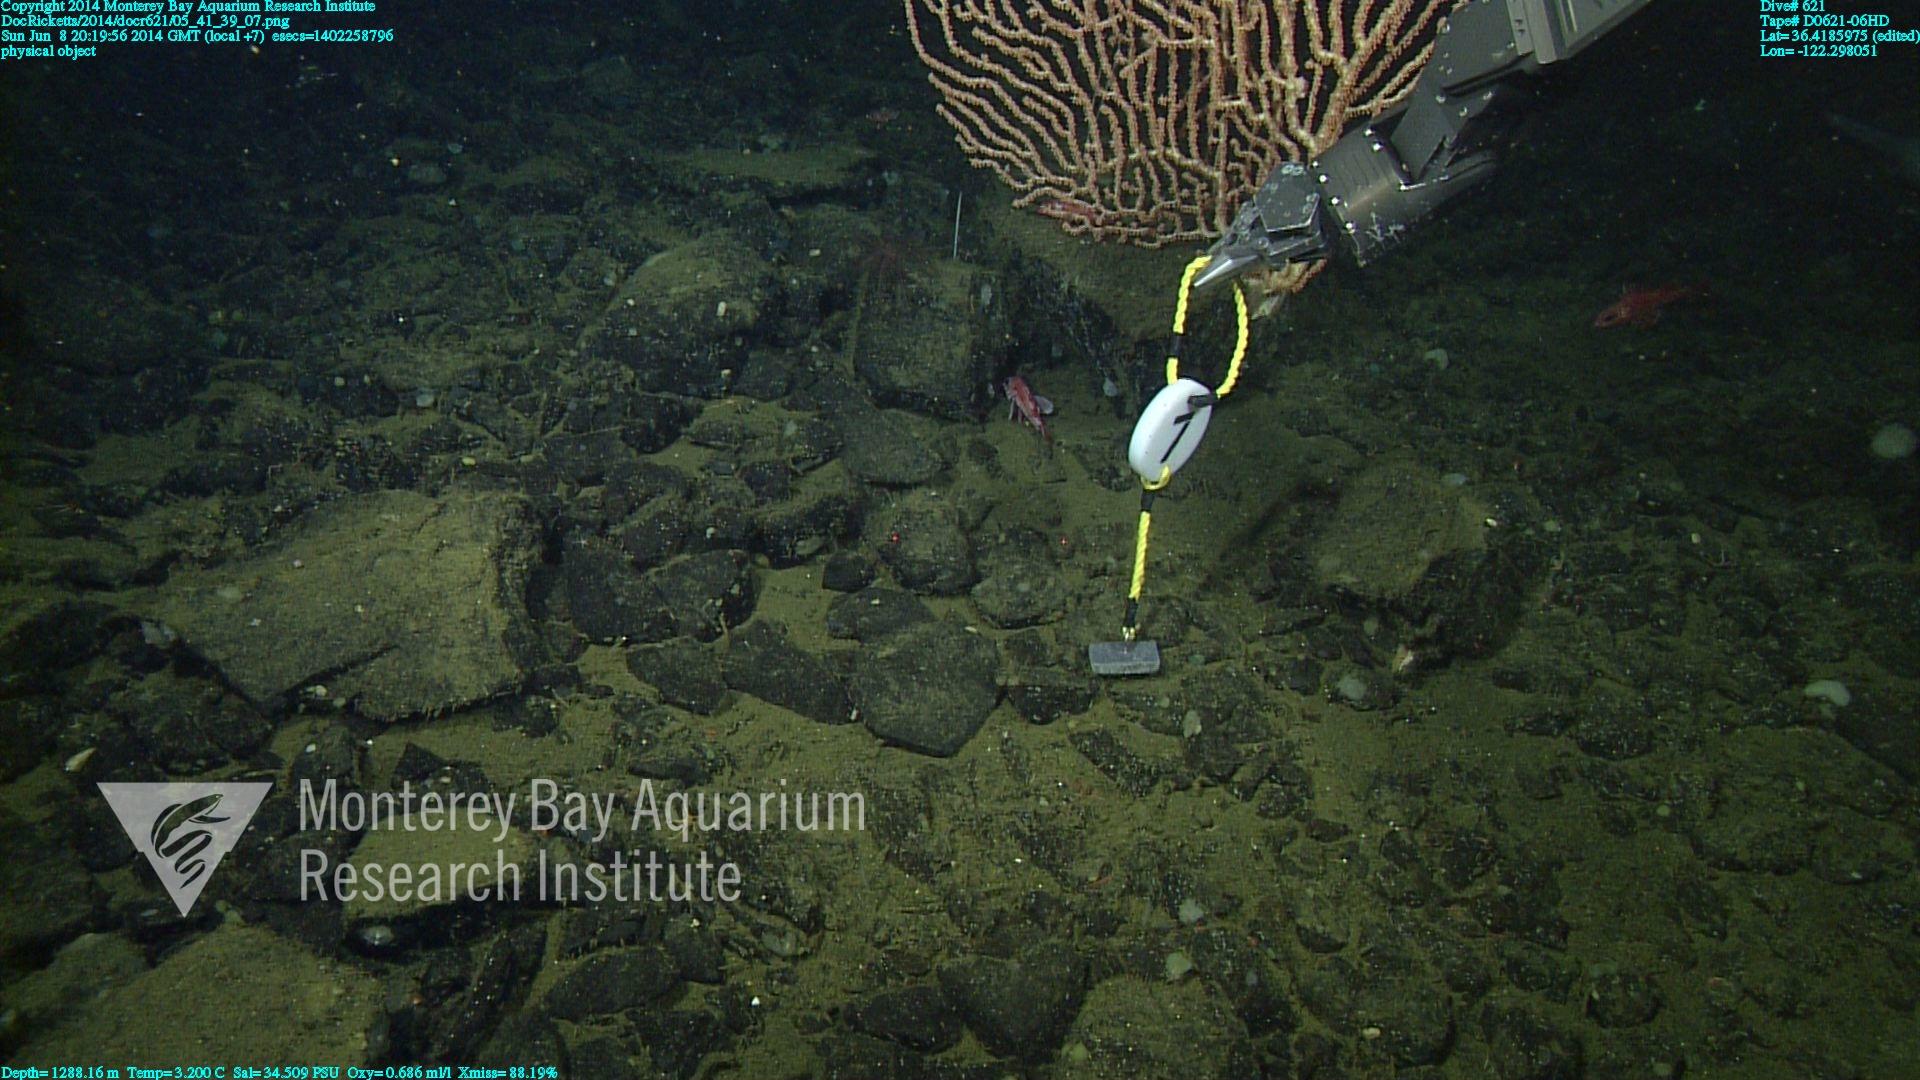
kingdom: Animalia
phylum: Cnidaria
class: Anthozoa
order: Scleralcyonacea
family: Keratoisididae
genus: Keratoisis
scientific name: Keratoisis
